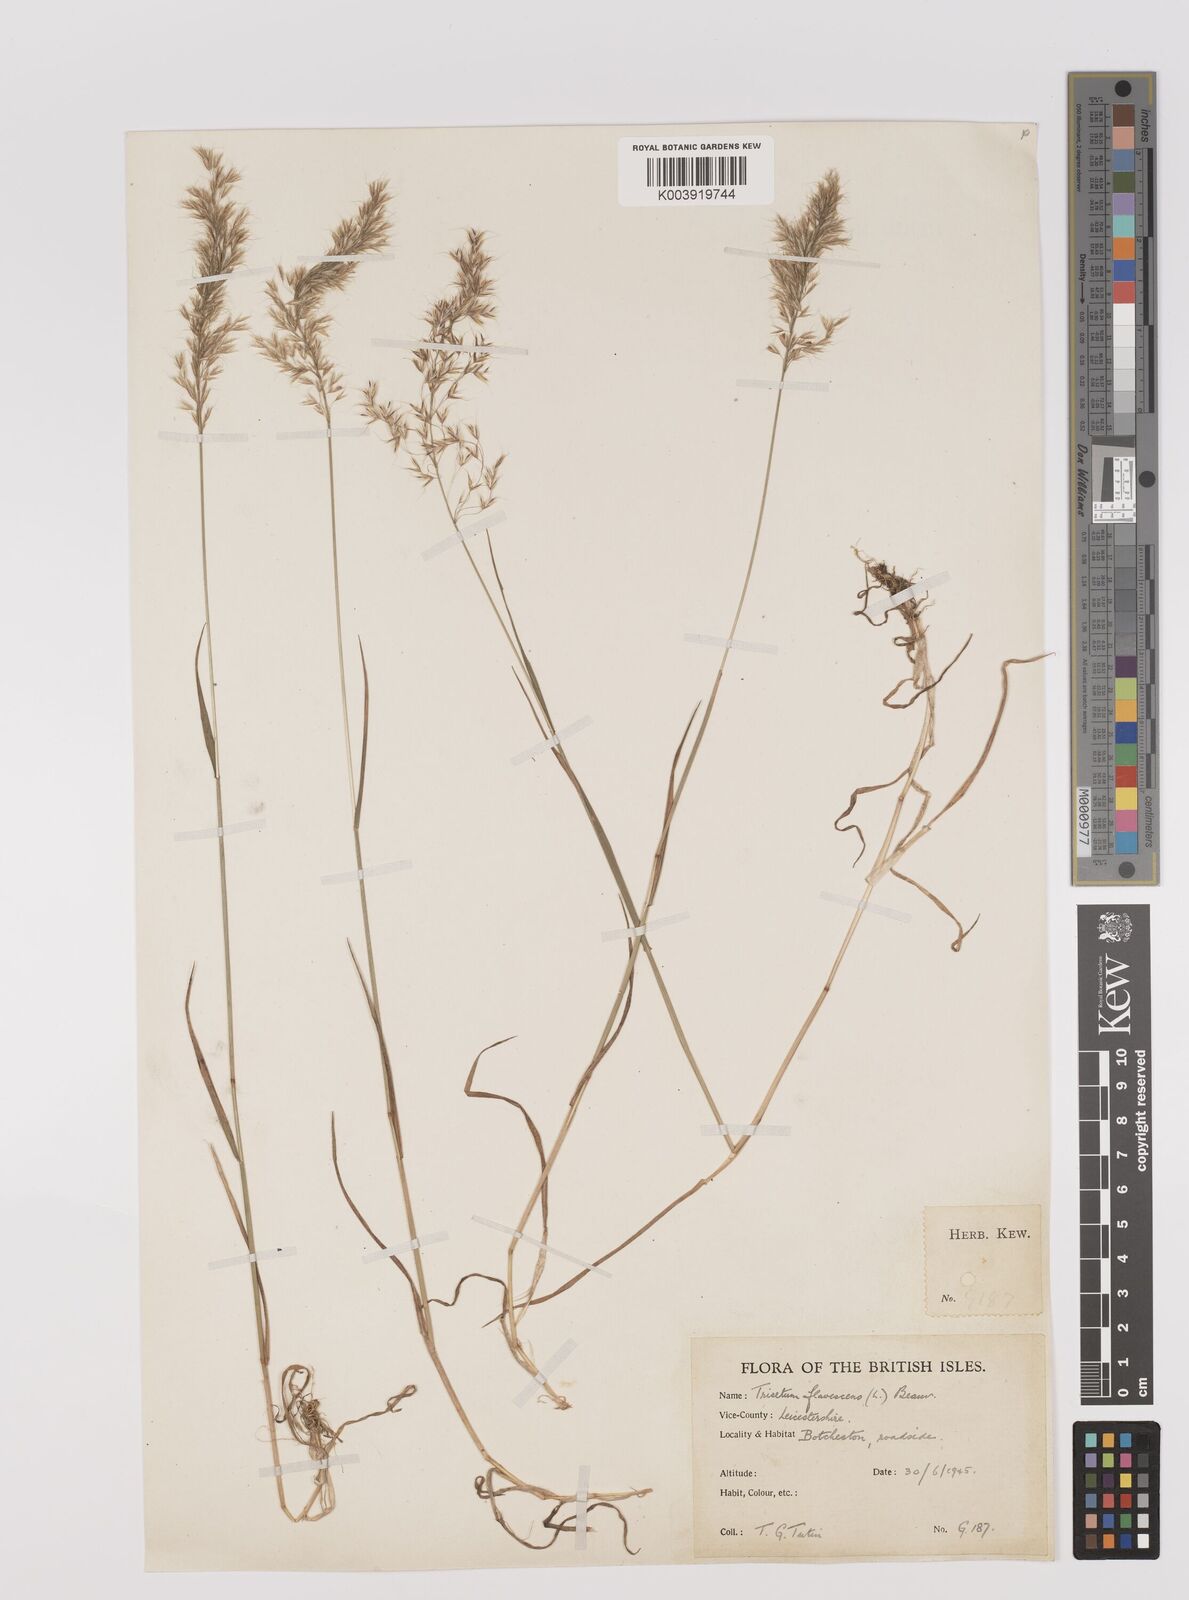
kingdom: Plantae
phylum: Tracheophyta
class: Liliopsida
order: Poales
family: Poaceae
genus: Trisetum
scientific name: Trisetum flavescens
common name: Yellow oat-grass
